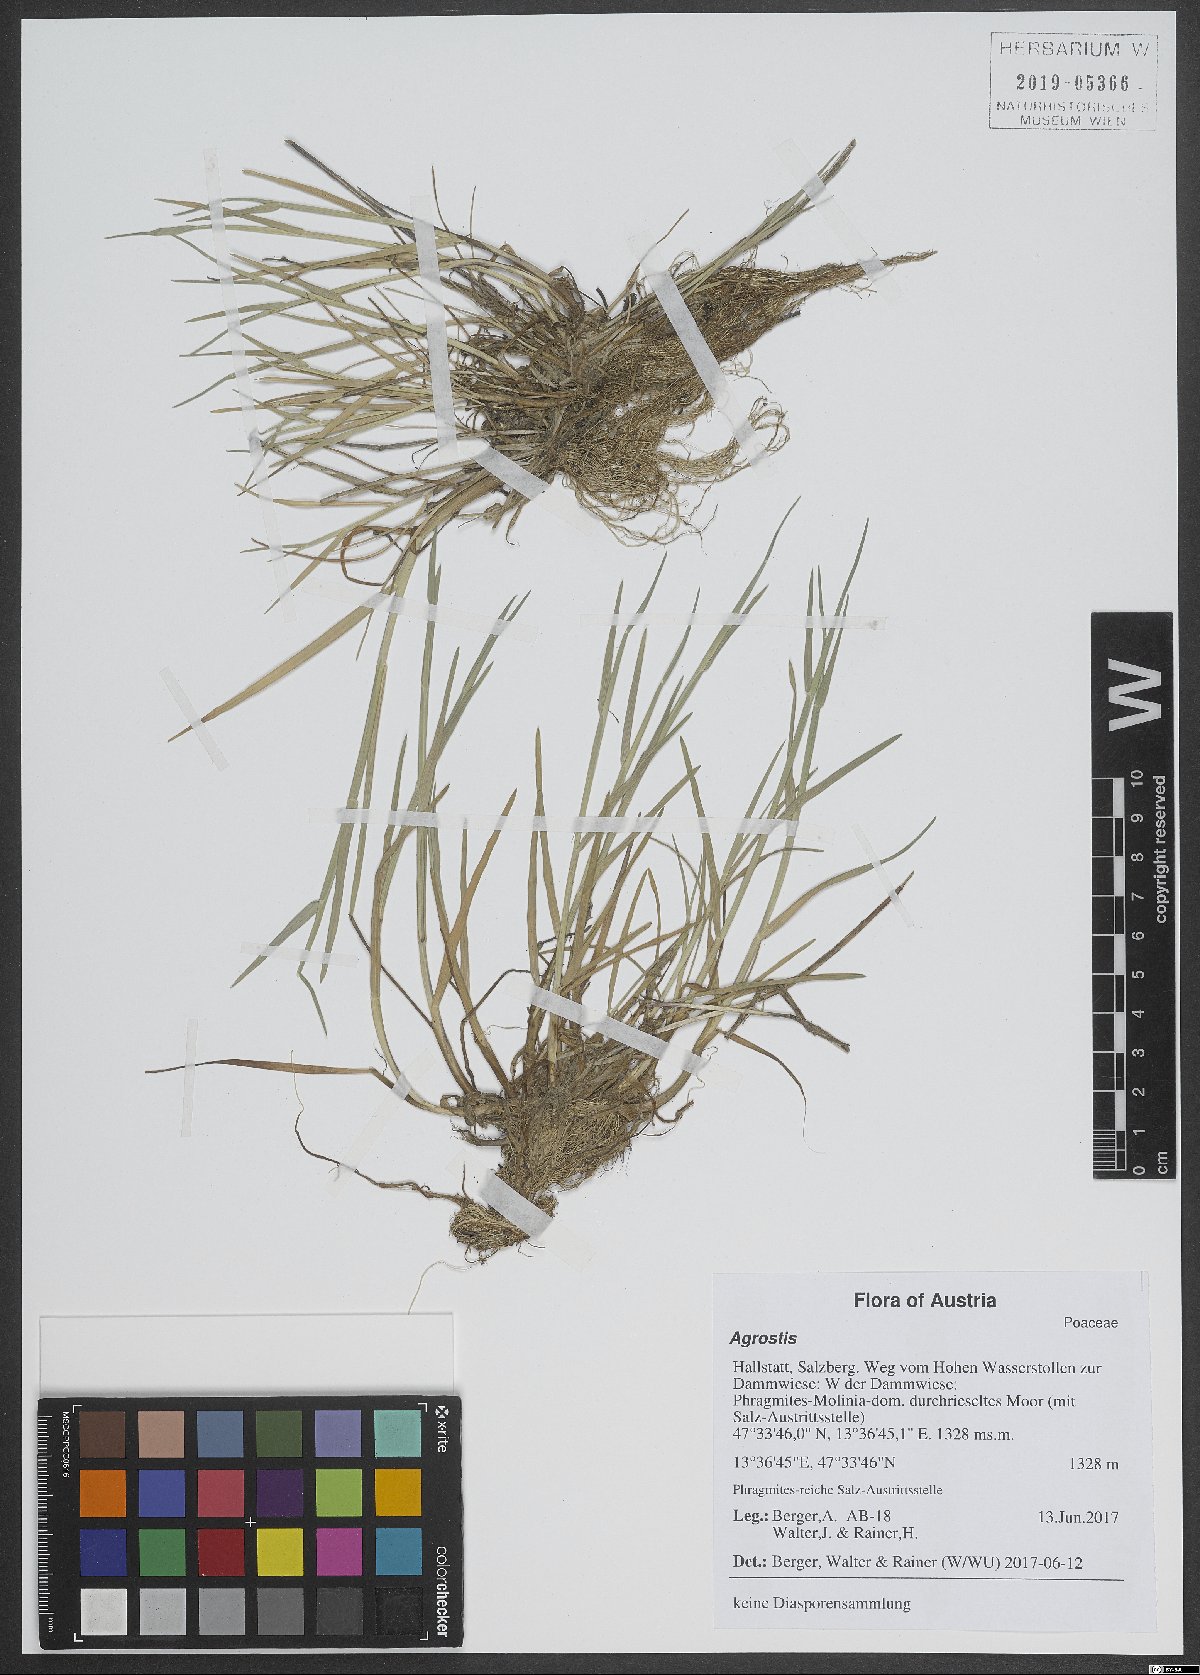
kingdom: Plantae
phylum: Tracheophyta
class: Liliopsida
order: Poales
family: Poaceae
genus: Agrostis
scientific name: Agrostis
